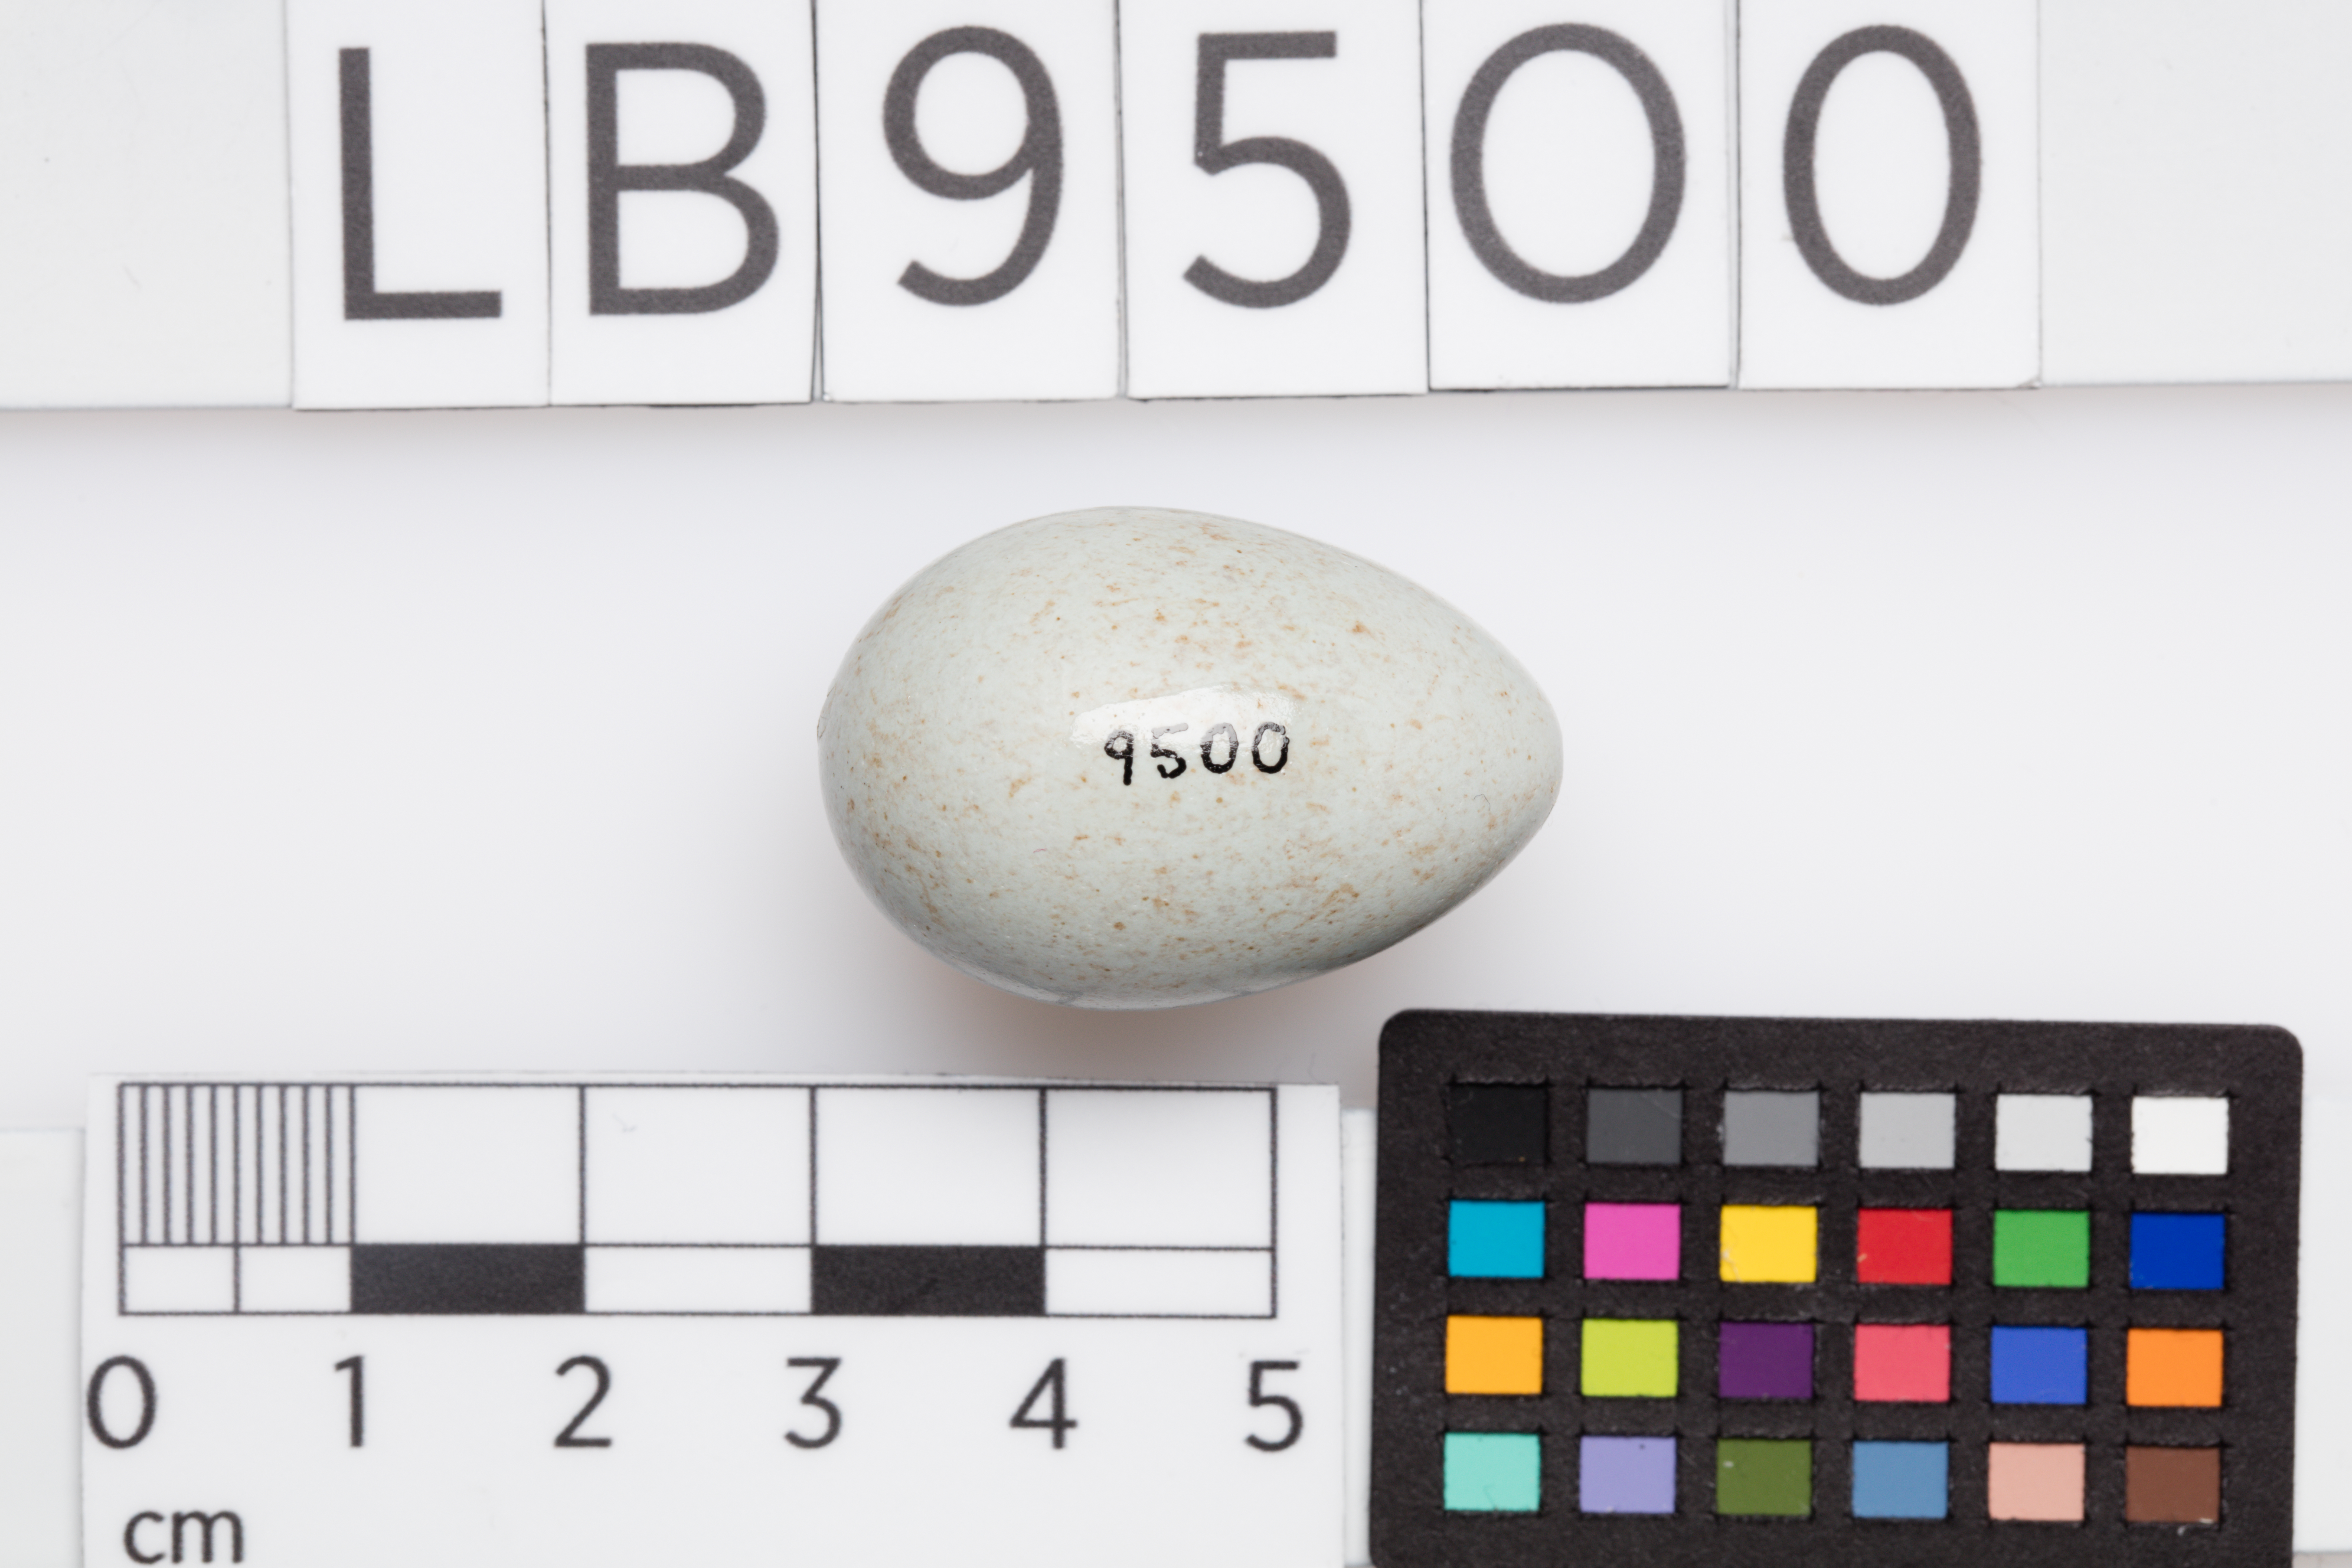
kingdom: Animalia
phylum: Chordata
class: Aves
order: Passeriformes
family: Turdidae
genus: Turdus
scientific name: Turdus merula
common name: Common blackbird
